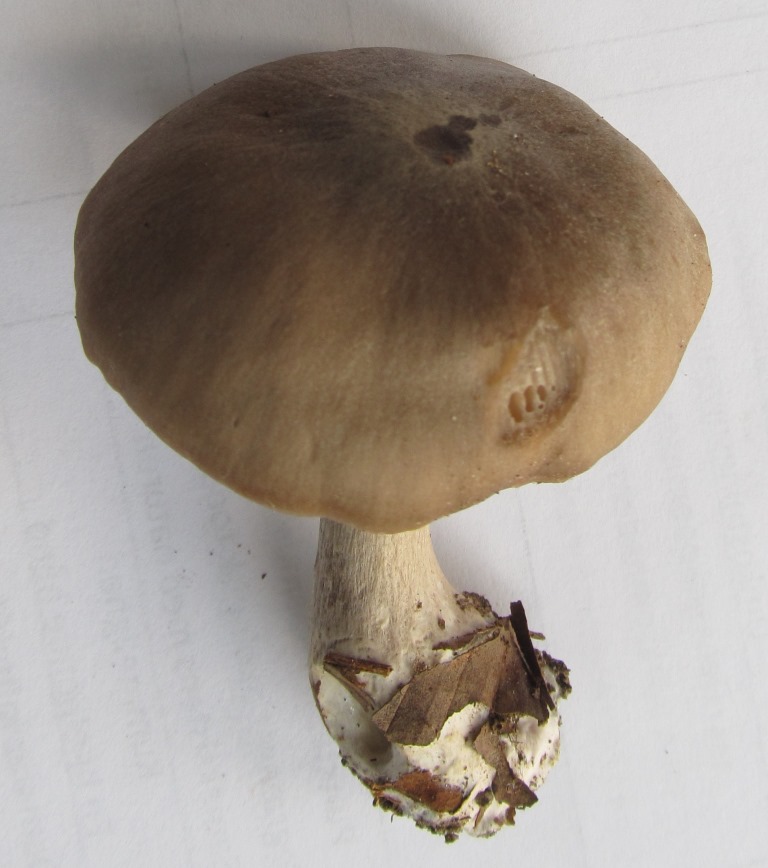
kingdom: Fungi
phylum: Basidiomycota
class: Agaricomycetes
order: Agaricales
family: Entolomataceae
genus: Entoloma
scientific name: Entoloma rhodopolium
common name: skov-rødblad
